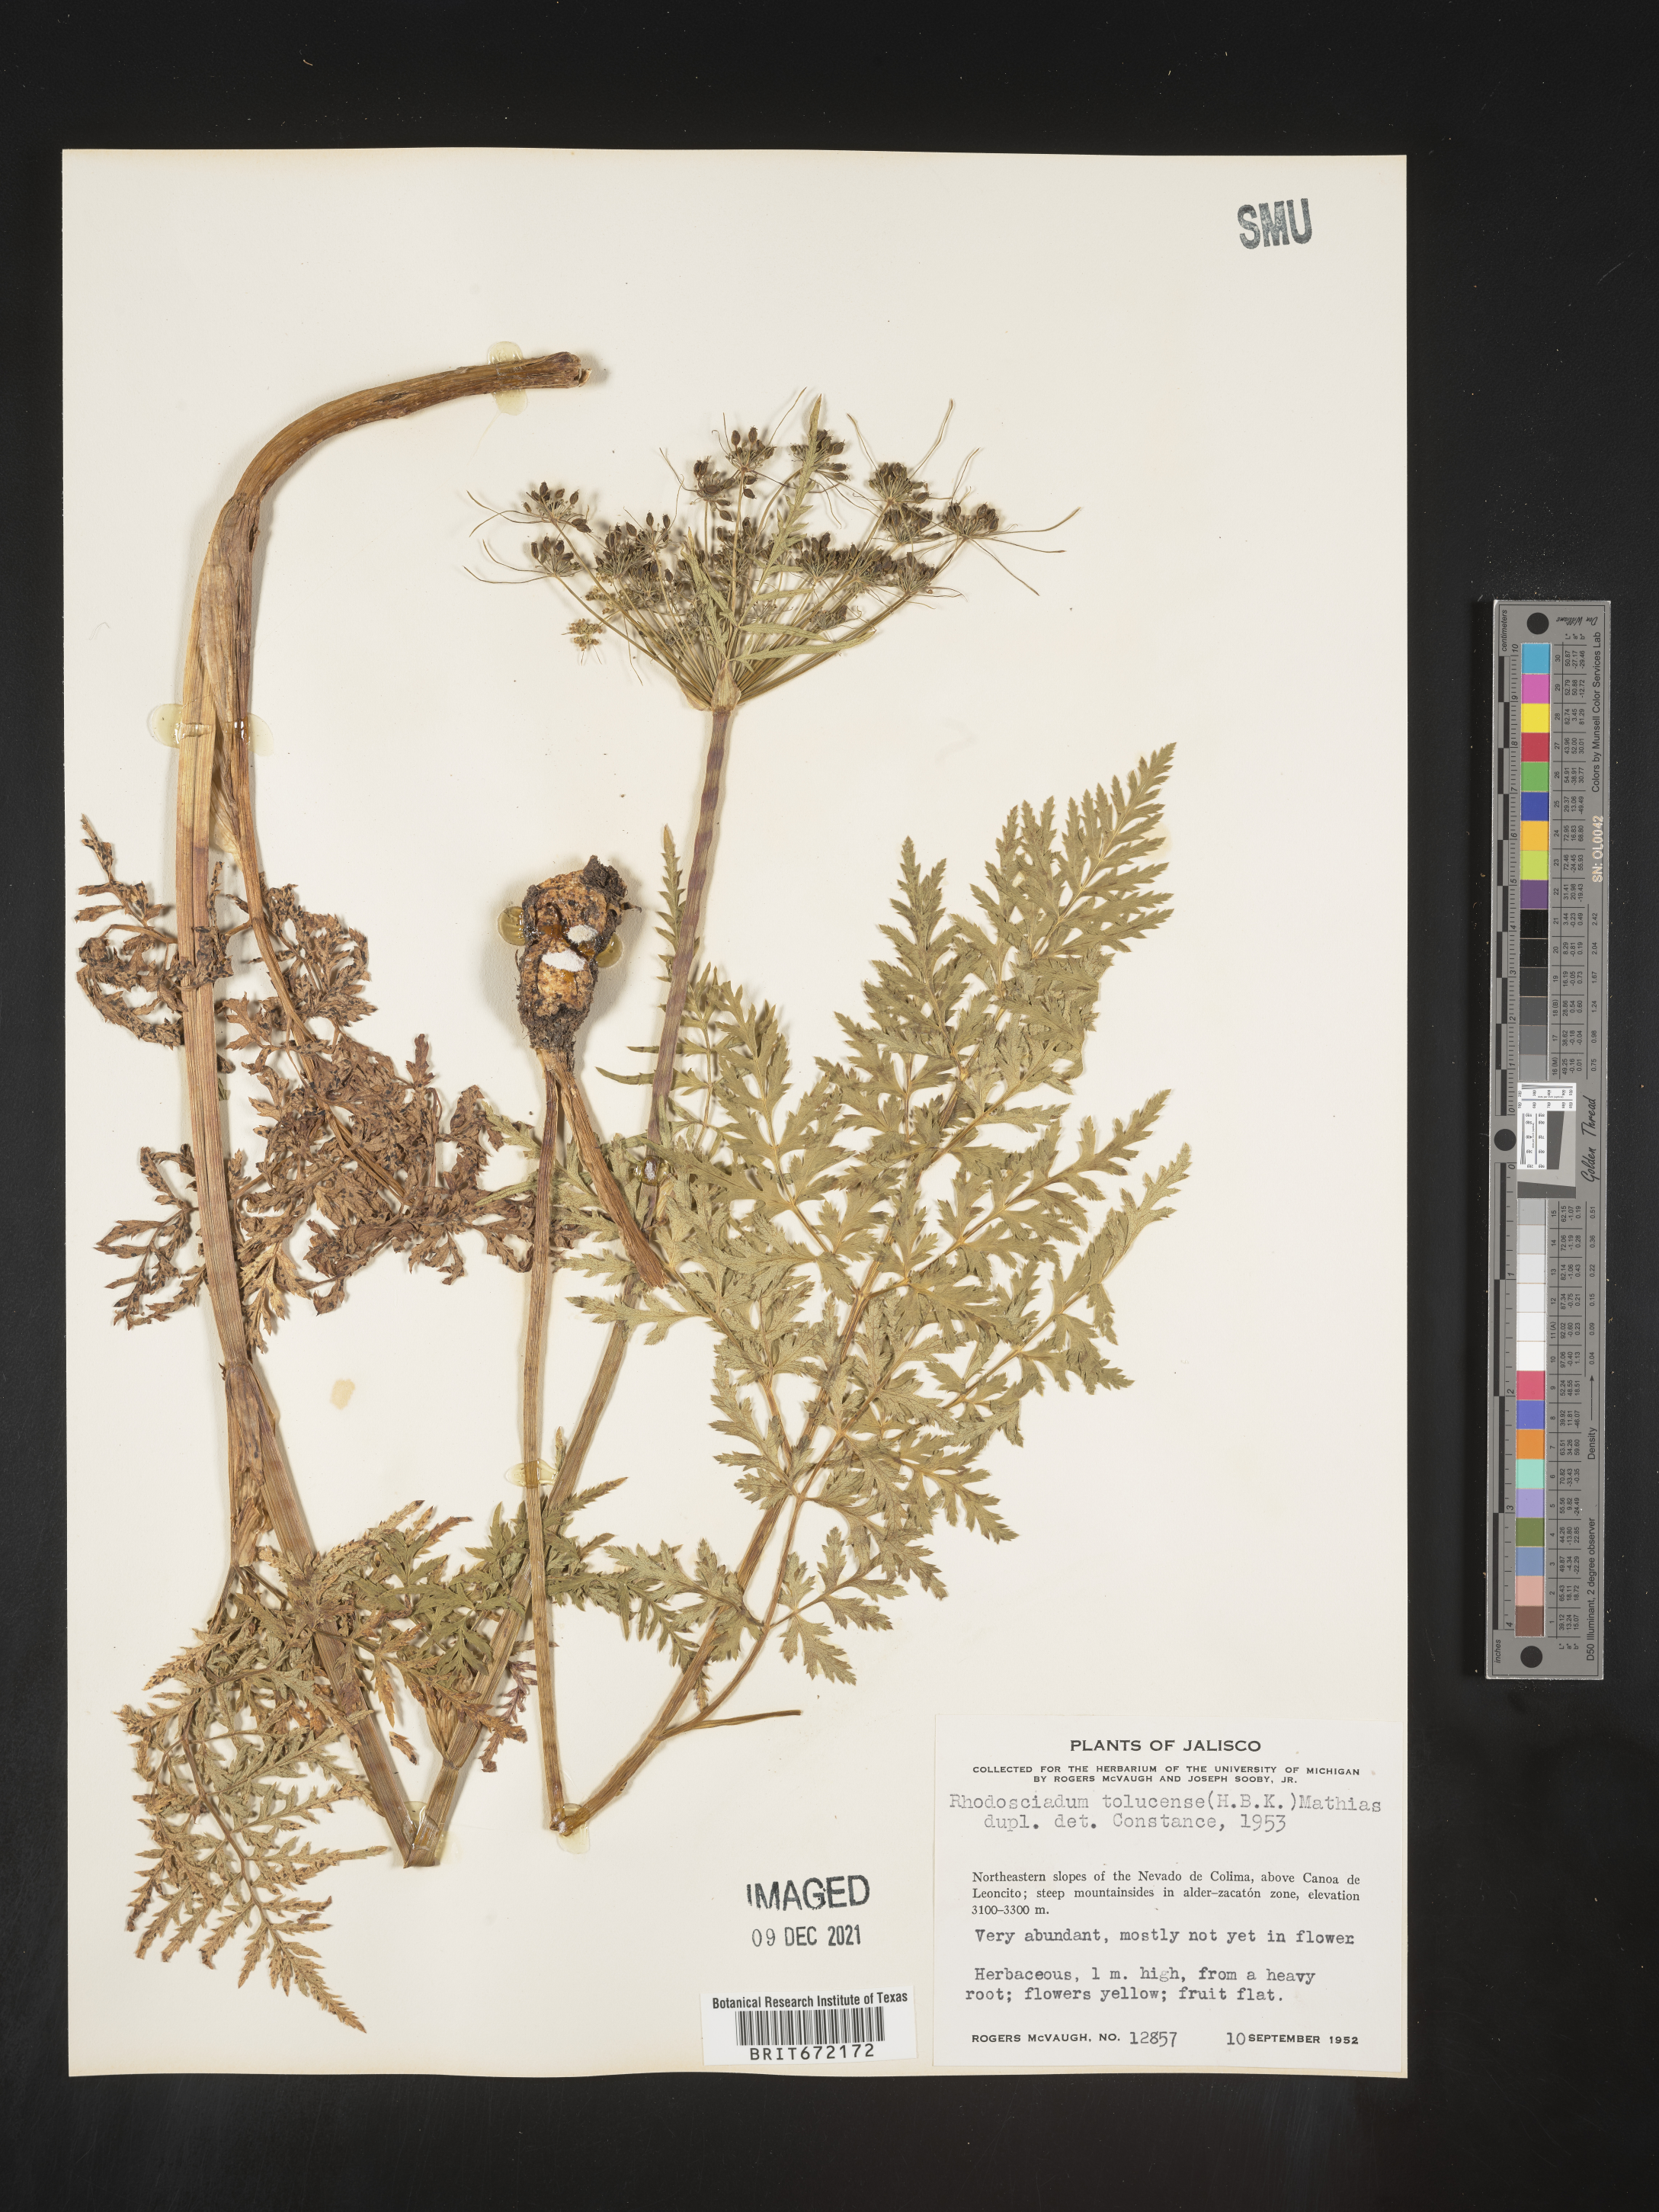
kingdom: Plantae
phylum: Tracheophyta
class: Magnoliopsida
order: Apiales
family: Apiaceae
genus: Rhodosciadium
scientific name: Rhodosciadium
